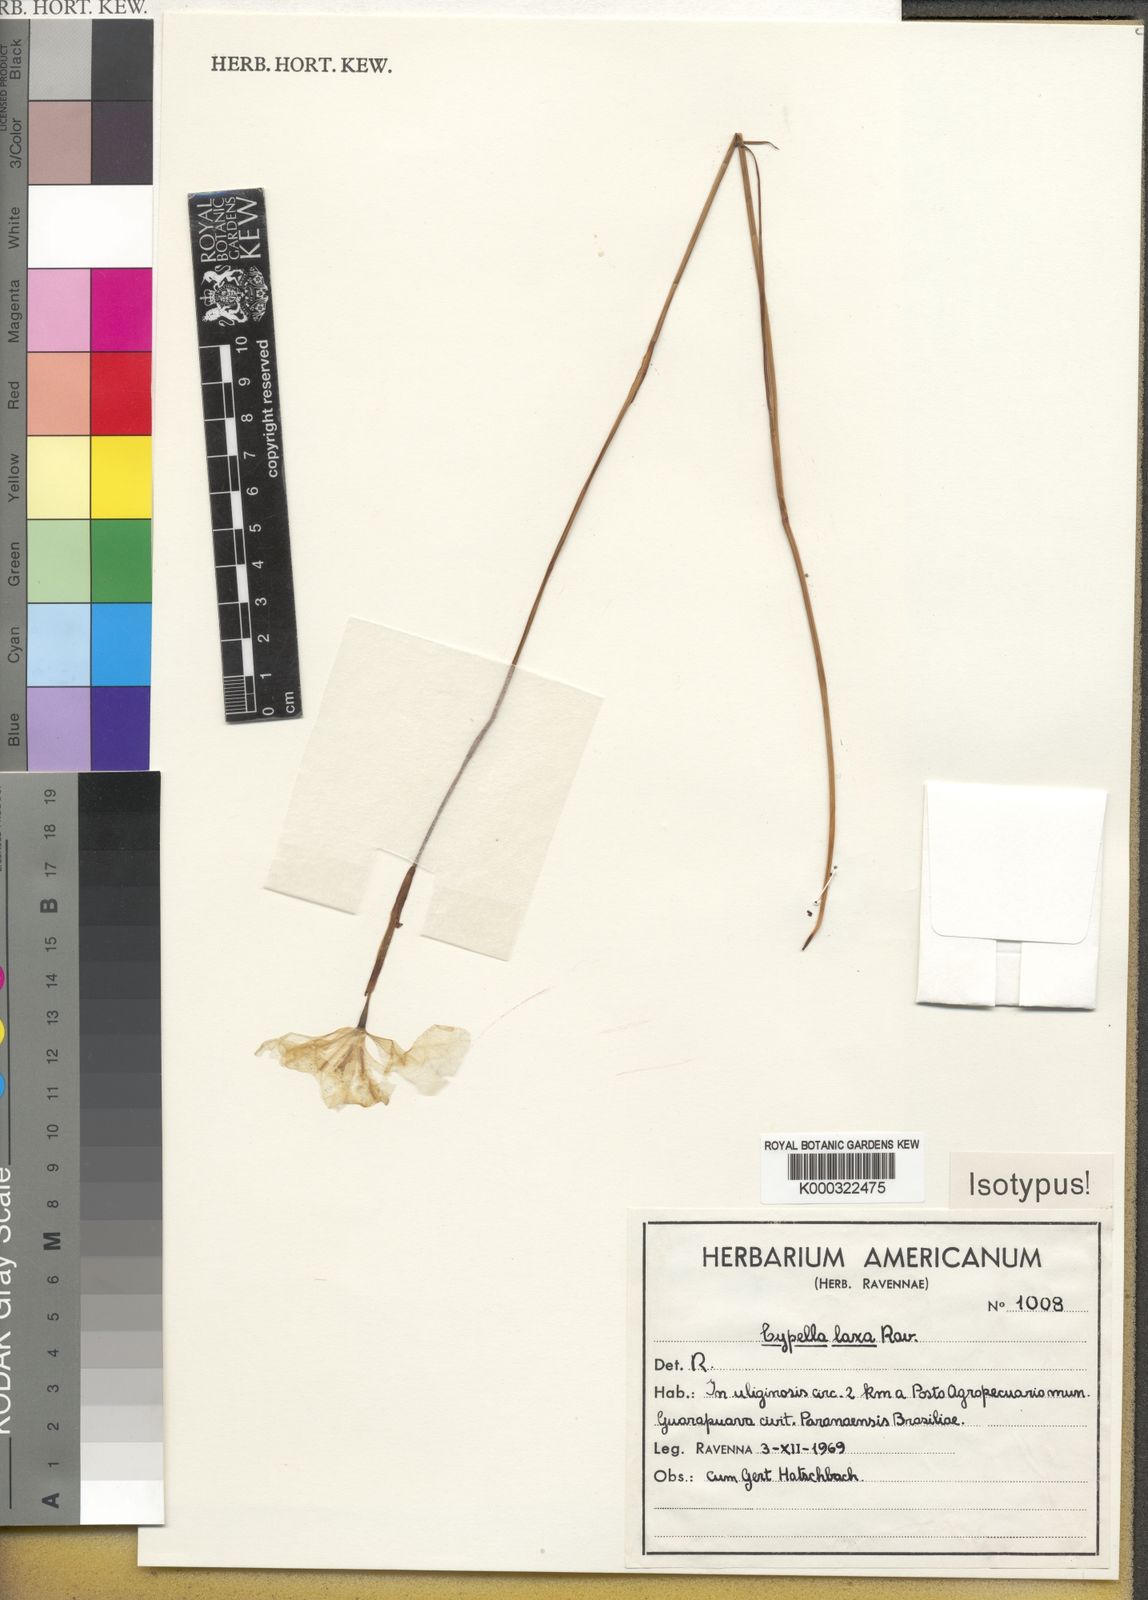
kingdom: Plantae
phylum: Tracheophyta
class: Liliopsida
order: Asparagales
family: Iridaceae
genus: Cypella
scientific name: Cypella crenata
